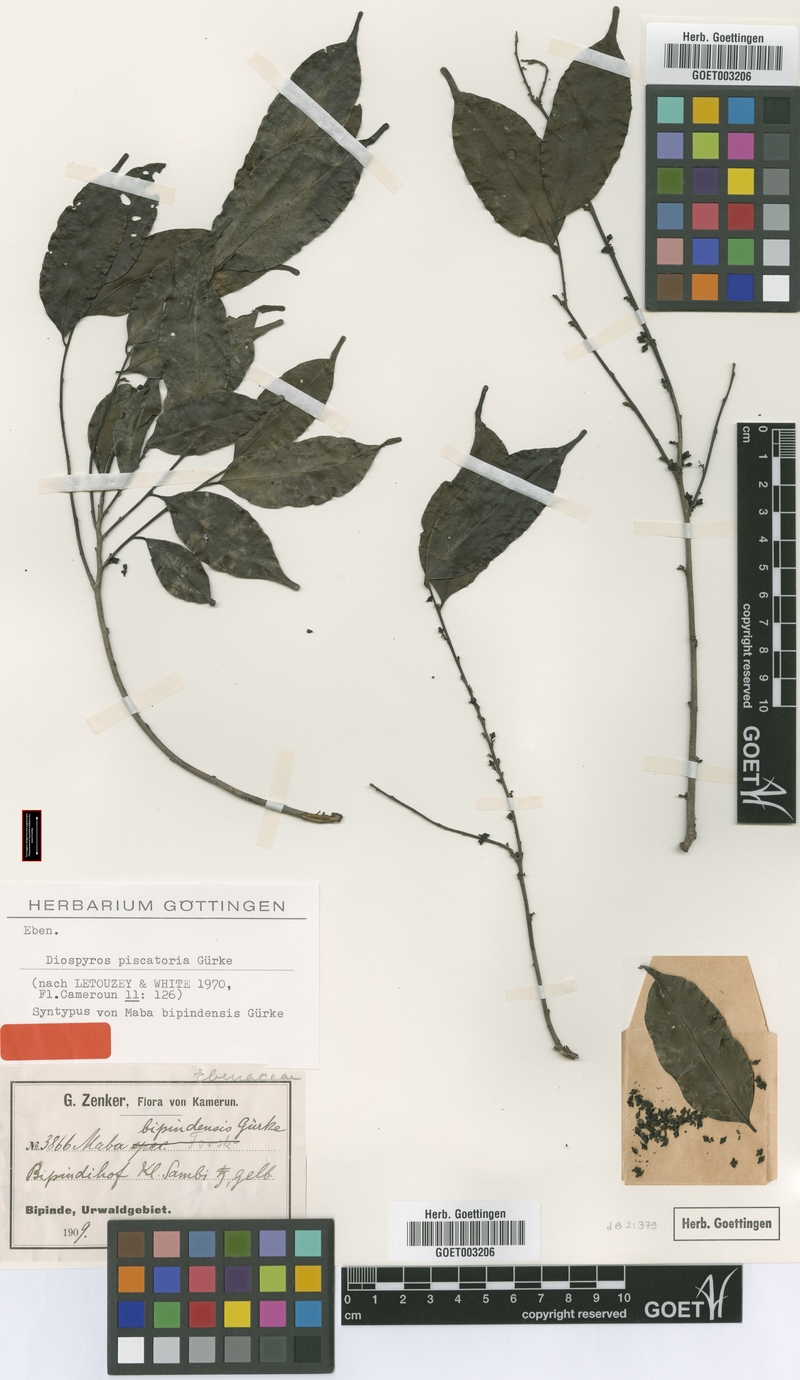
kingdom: Plantae
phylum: Tracheophyta
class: Magnoliopsida
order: Ericales
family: Ebenaceae
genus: Diospyros
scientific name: Diospyros piscatoria
